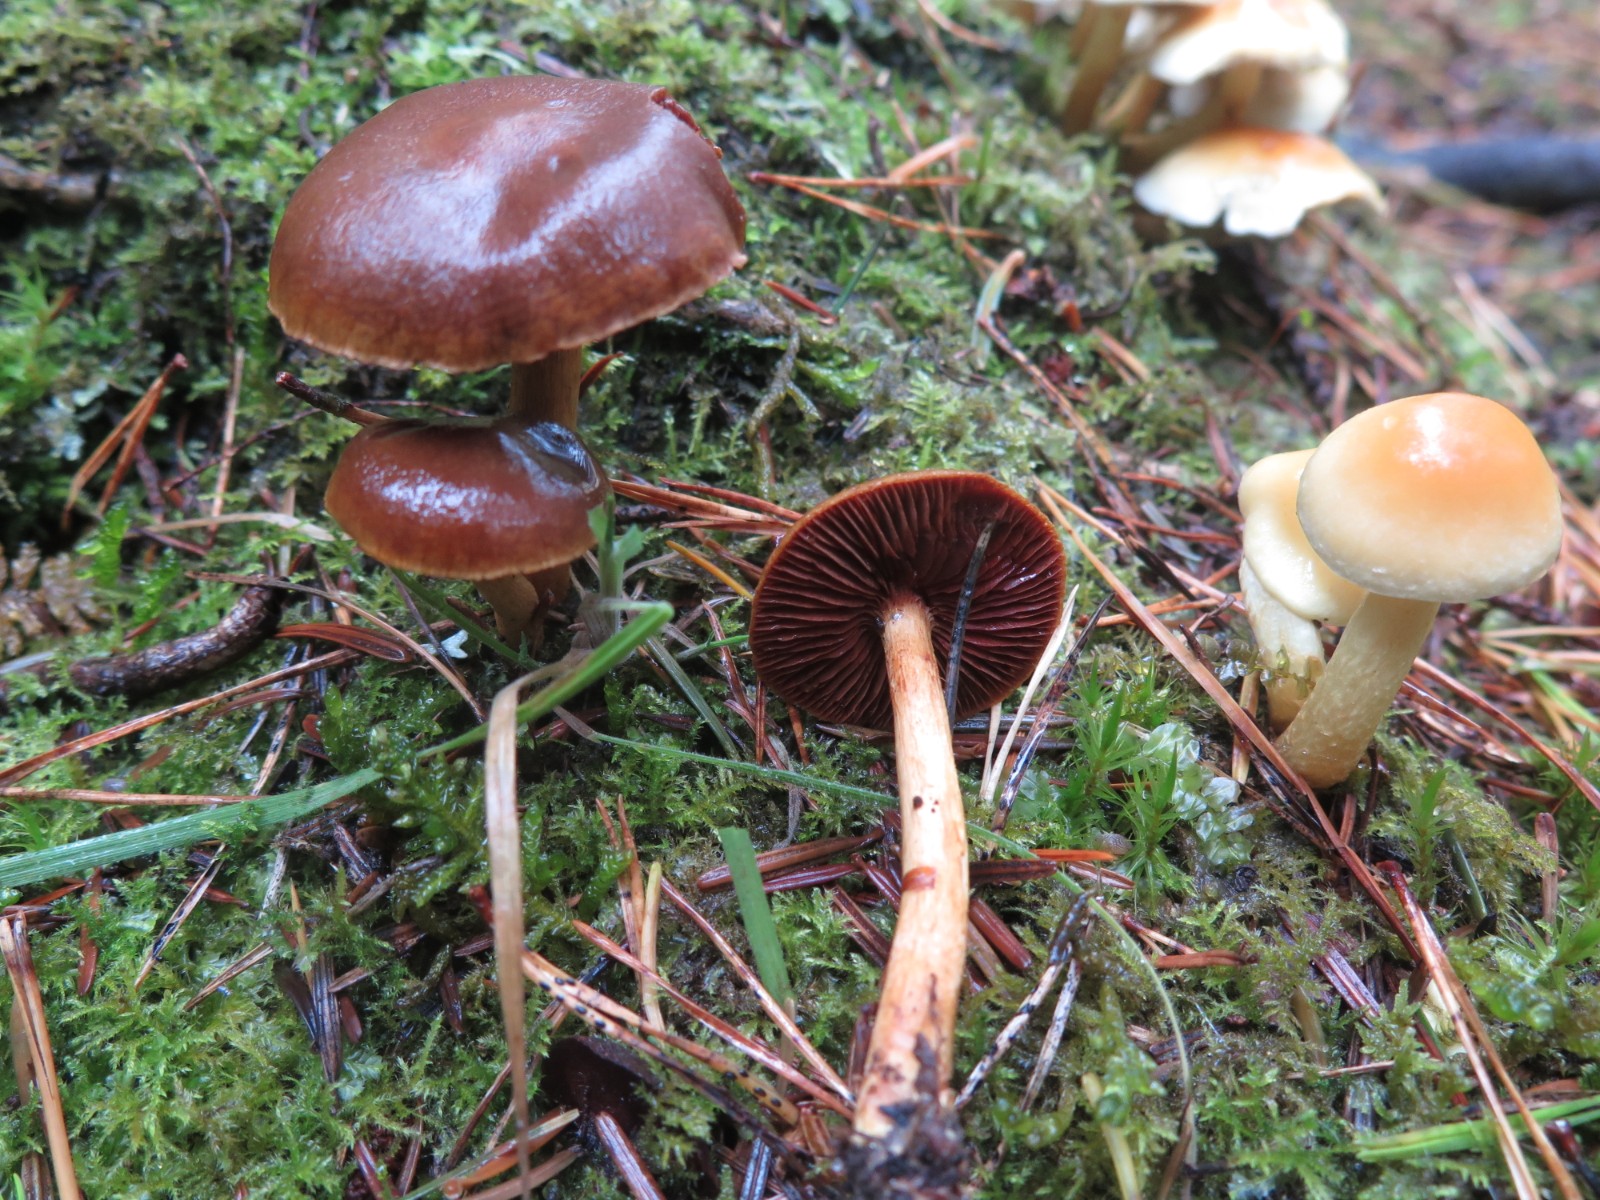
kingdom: Fungi
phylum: Basidiomycota
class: Agaricomycetes
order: Agaricales
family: Cortinariaceae
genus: Cortinarius
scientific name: Cortinarius
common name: cinnoberbladet slørhat
